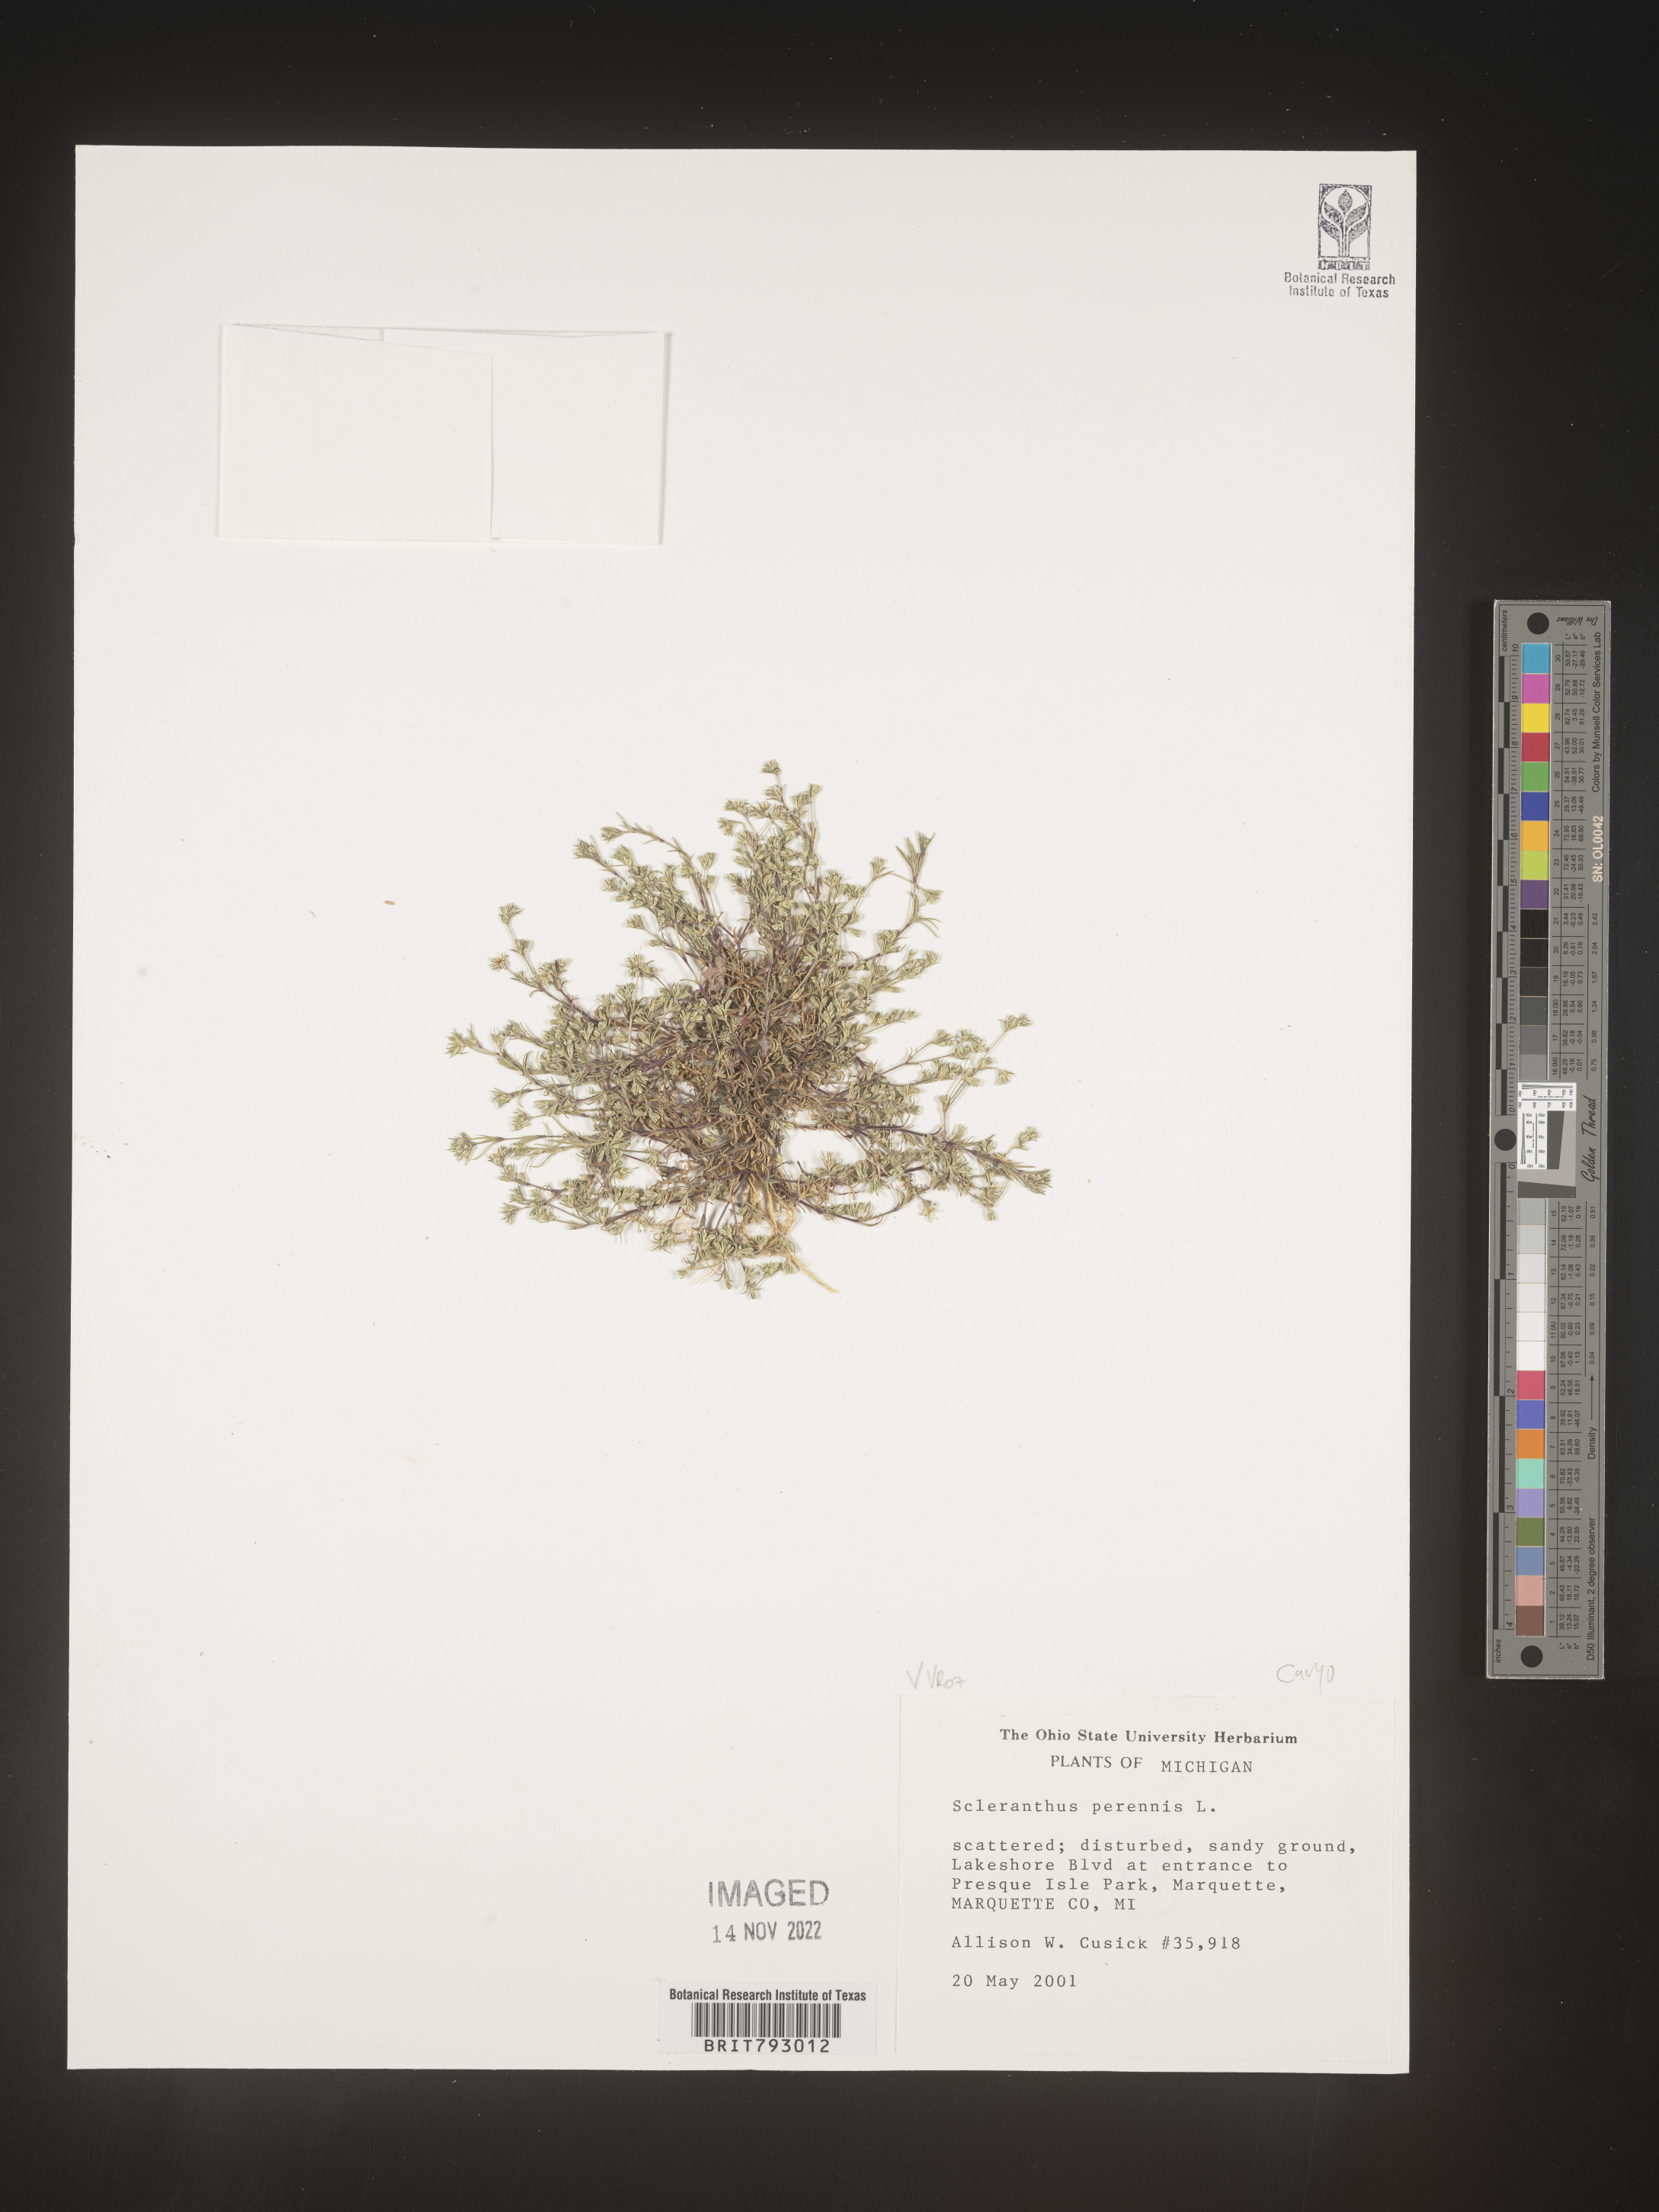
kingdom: Plantae
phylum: Tracheophyta
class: Magnoliopsida
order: Caryophyllales
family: Caryophyllaceae
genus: Scleranthus
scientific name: Scleranthus
